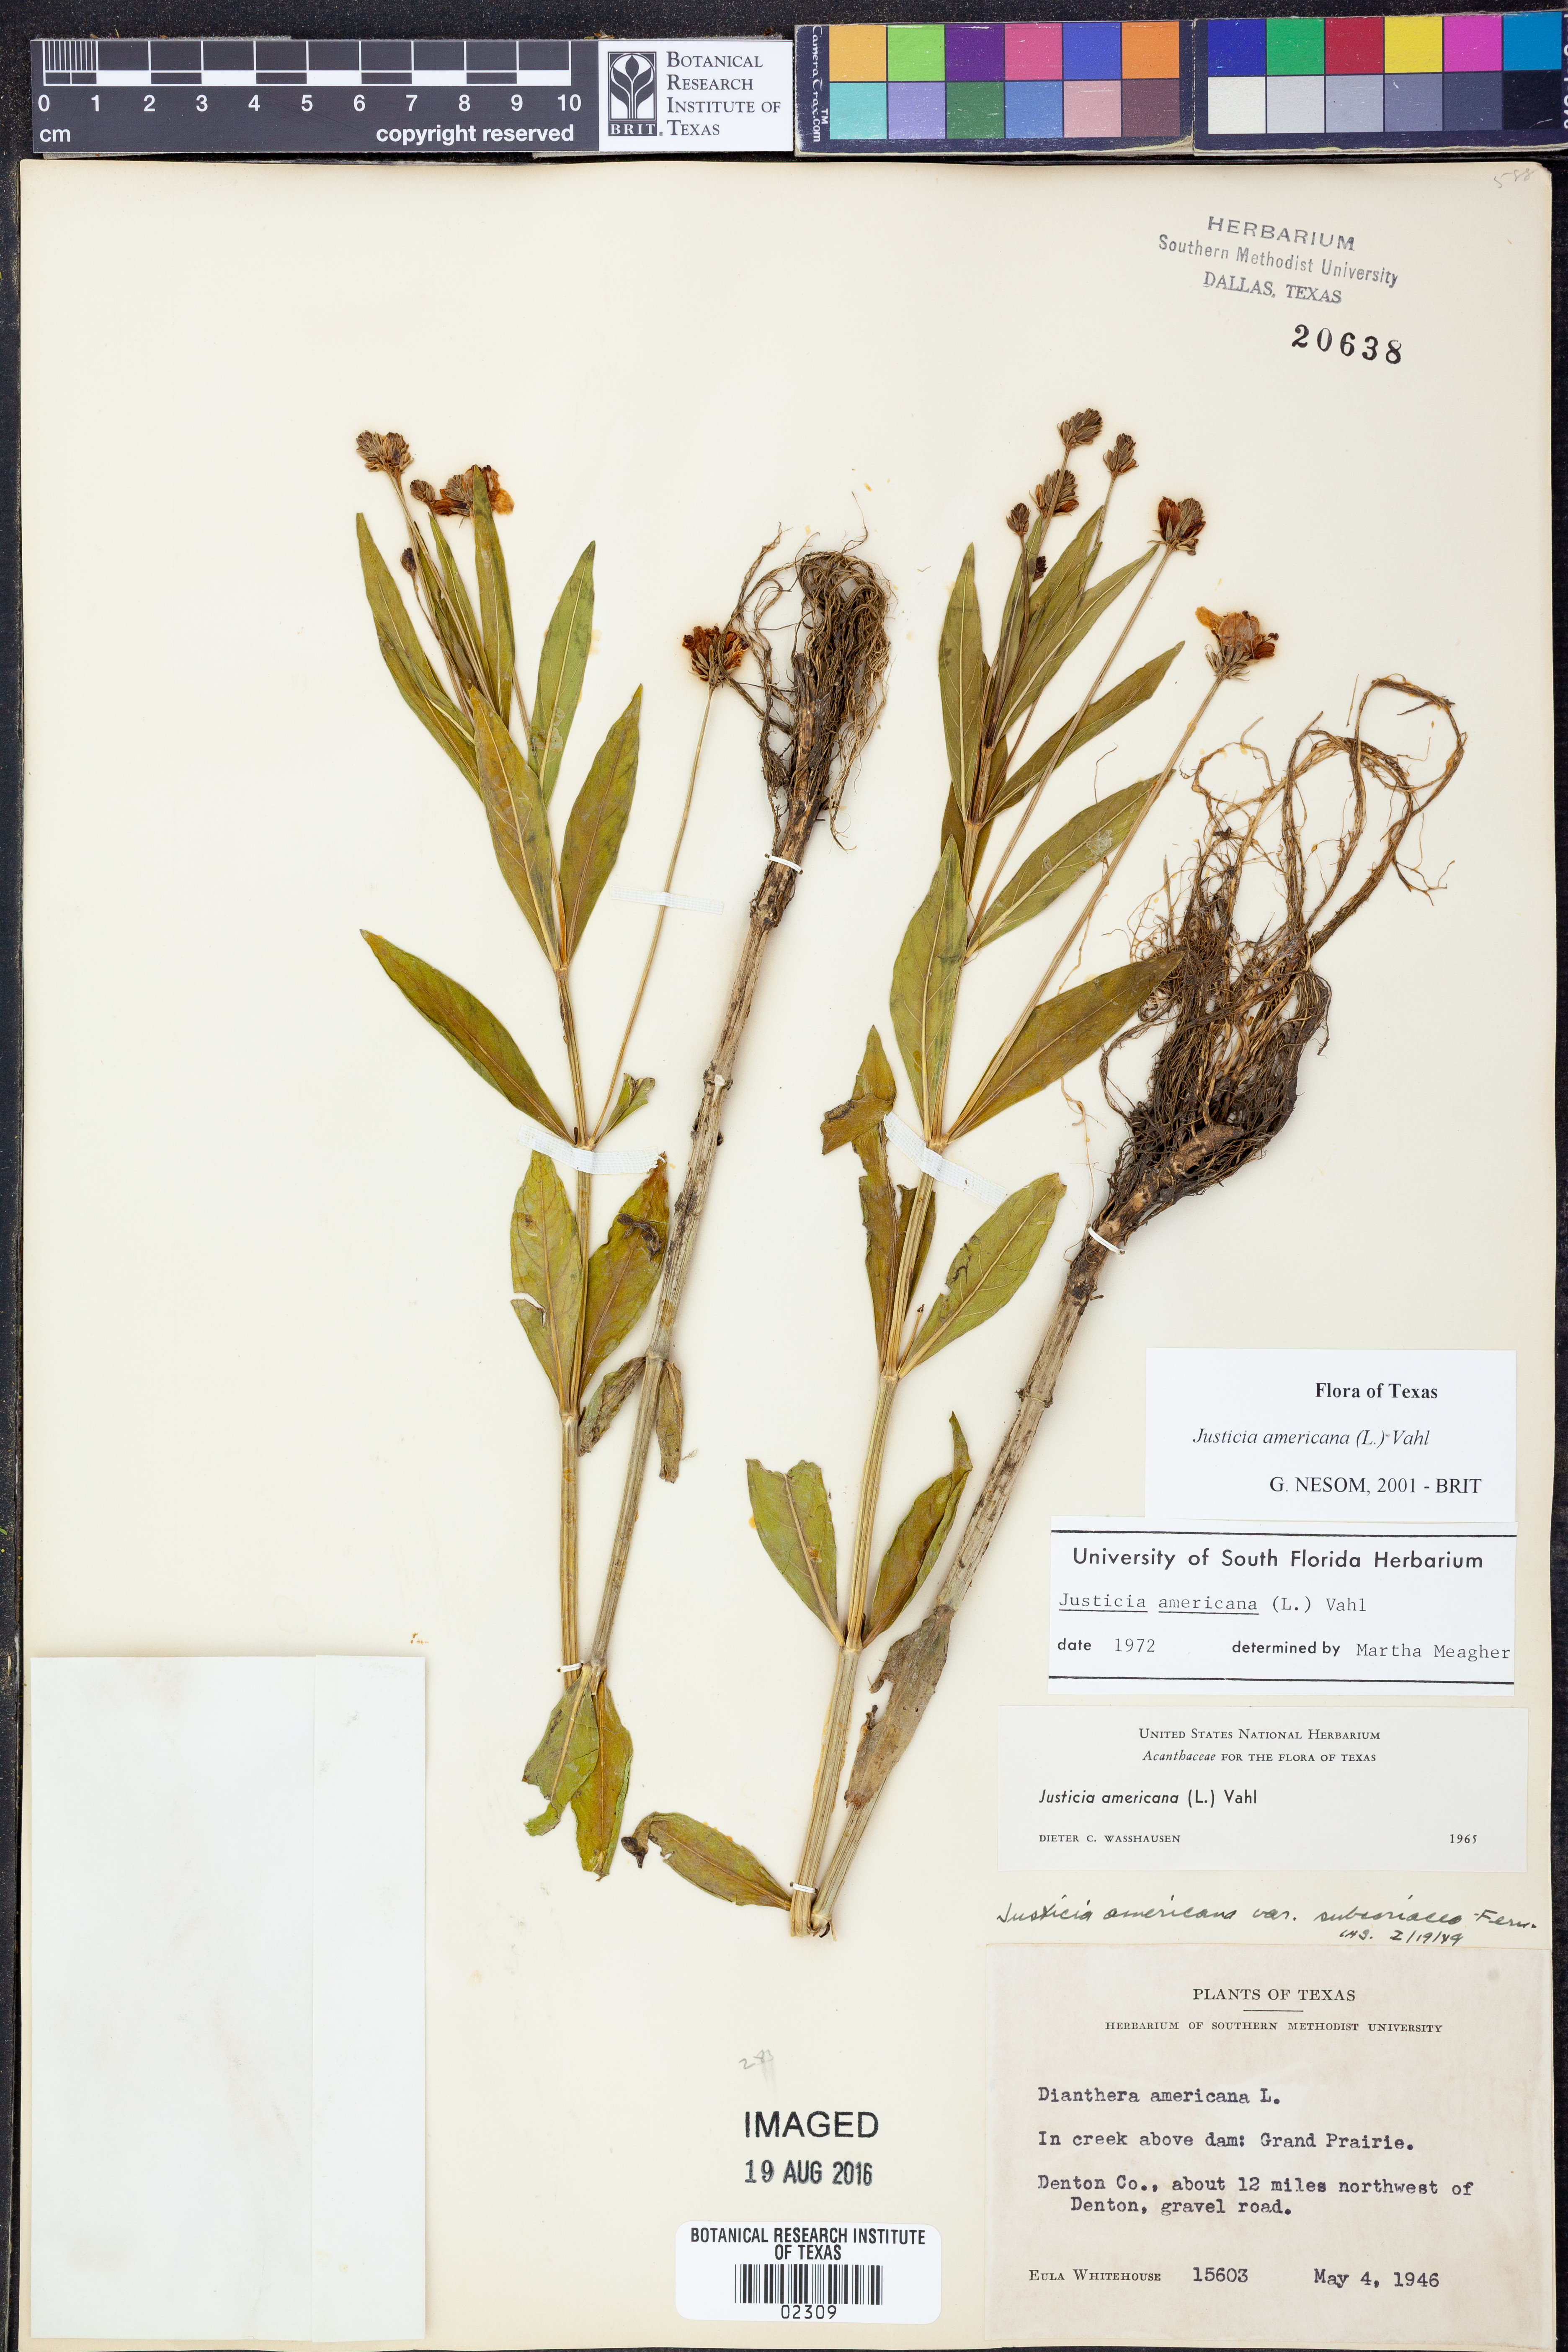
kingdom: Plantae
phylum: Tracheophyta
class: Magnoliopsida
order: Lamiales
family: Acanthaceae
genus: Dianthera
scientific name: Dianthera americana
